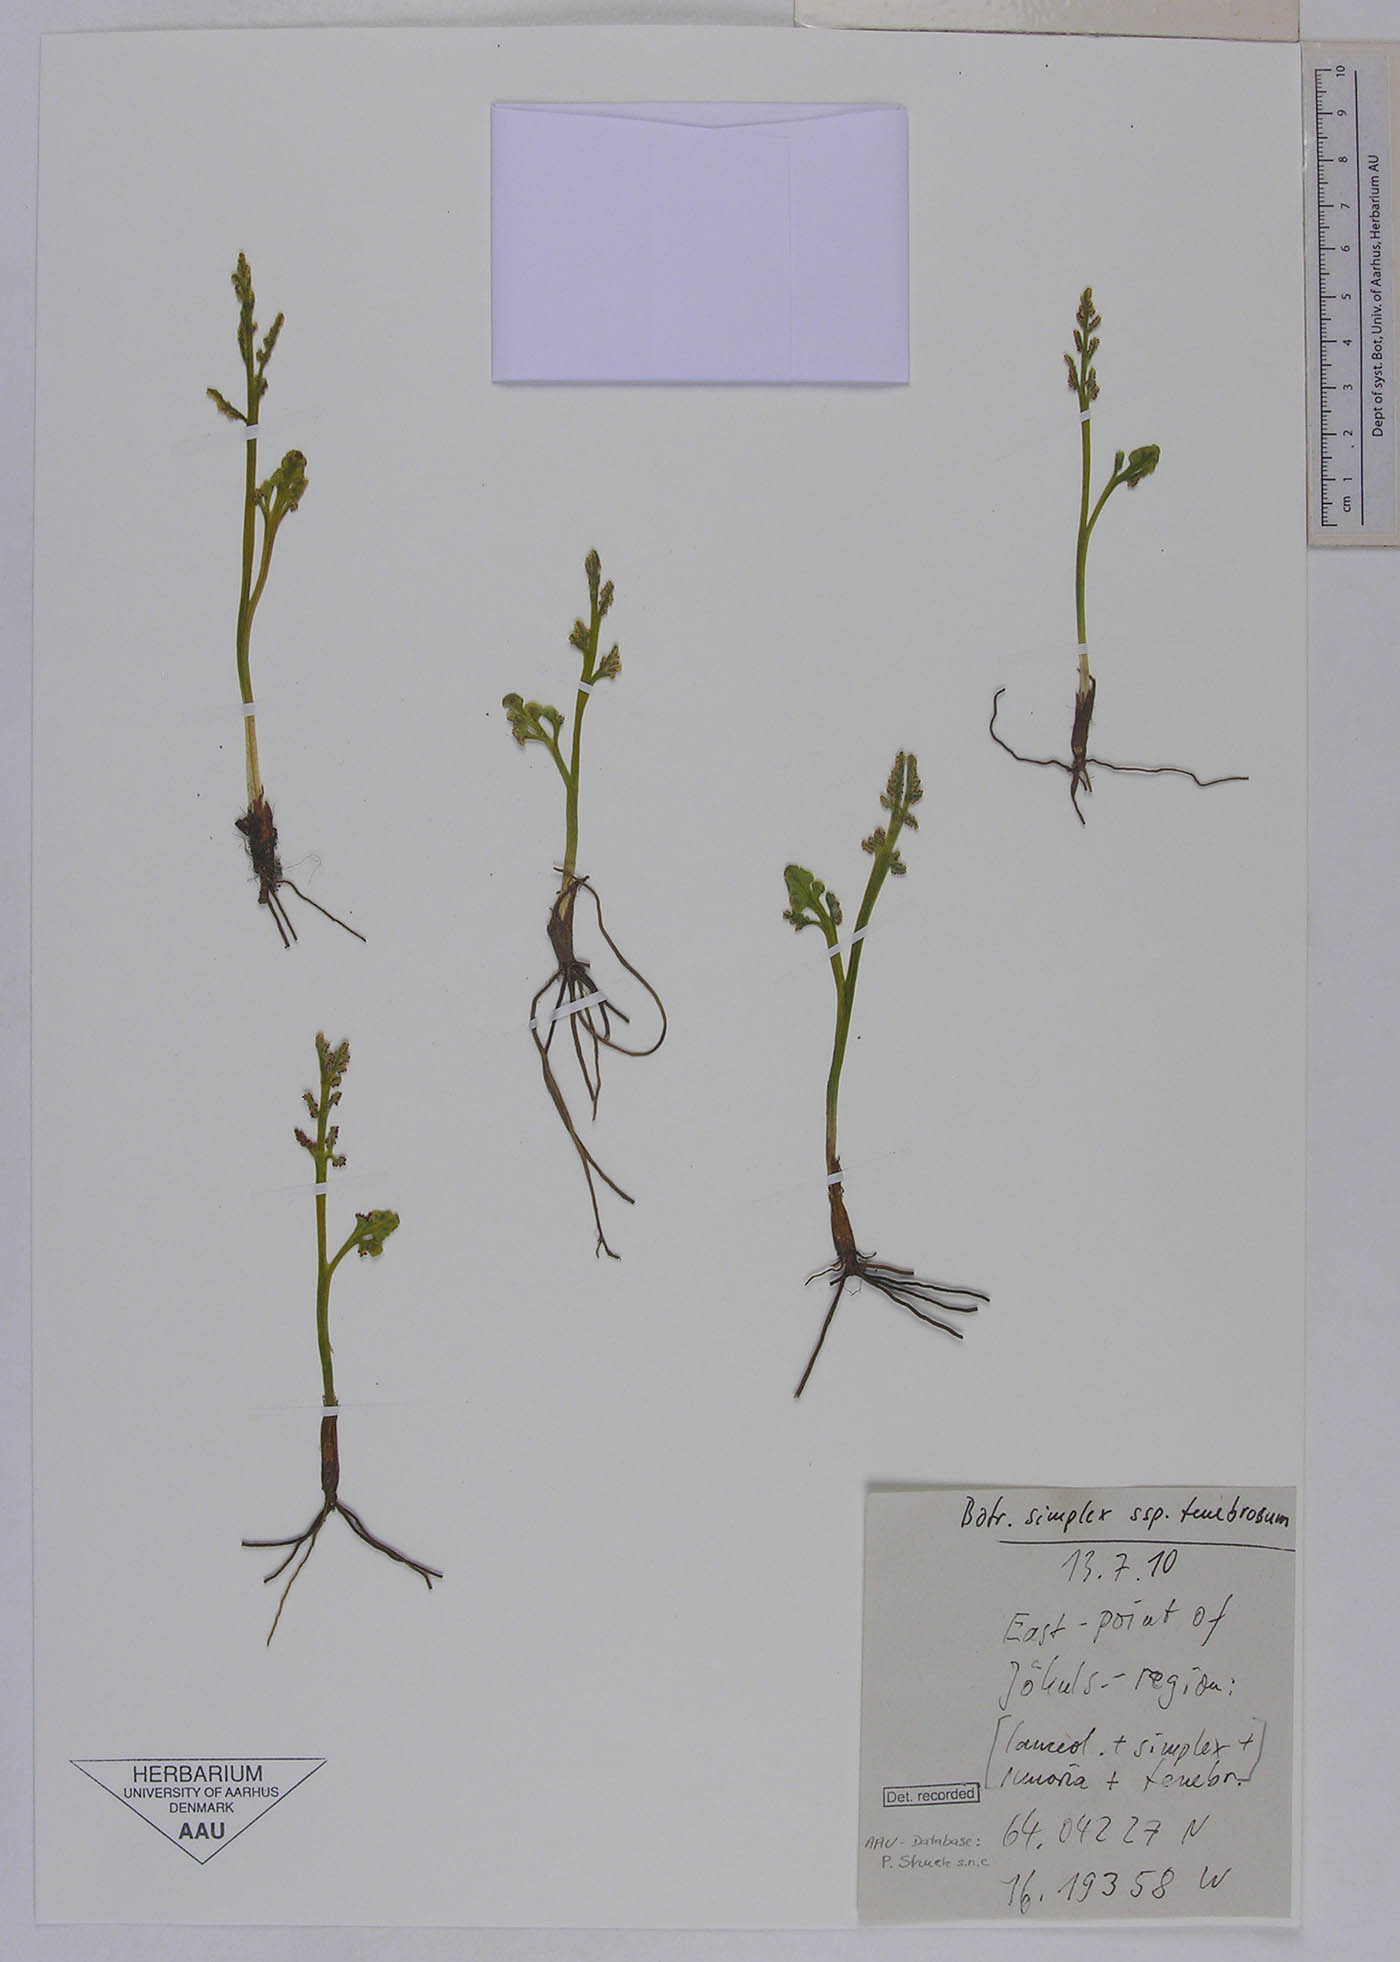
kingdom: Plantae
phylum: Tracheophyta
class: Polypodiopsida
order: Ophioglossales
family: Ophioglossaceae
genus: Botrychium
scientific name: Botrychium simplex
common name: Least moonwort
